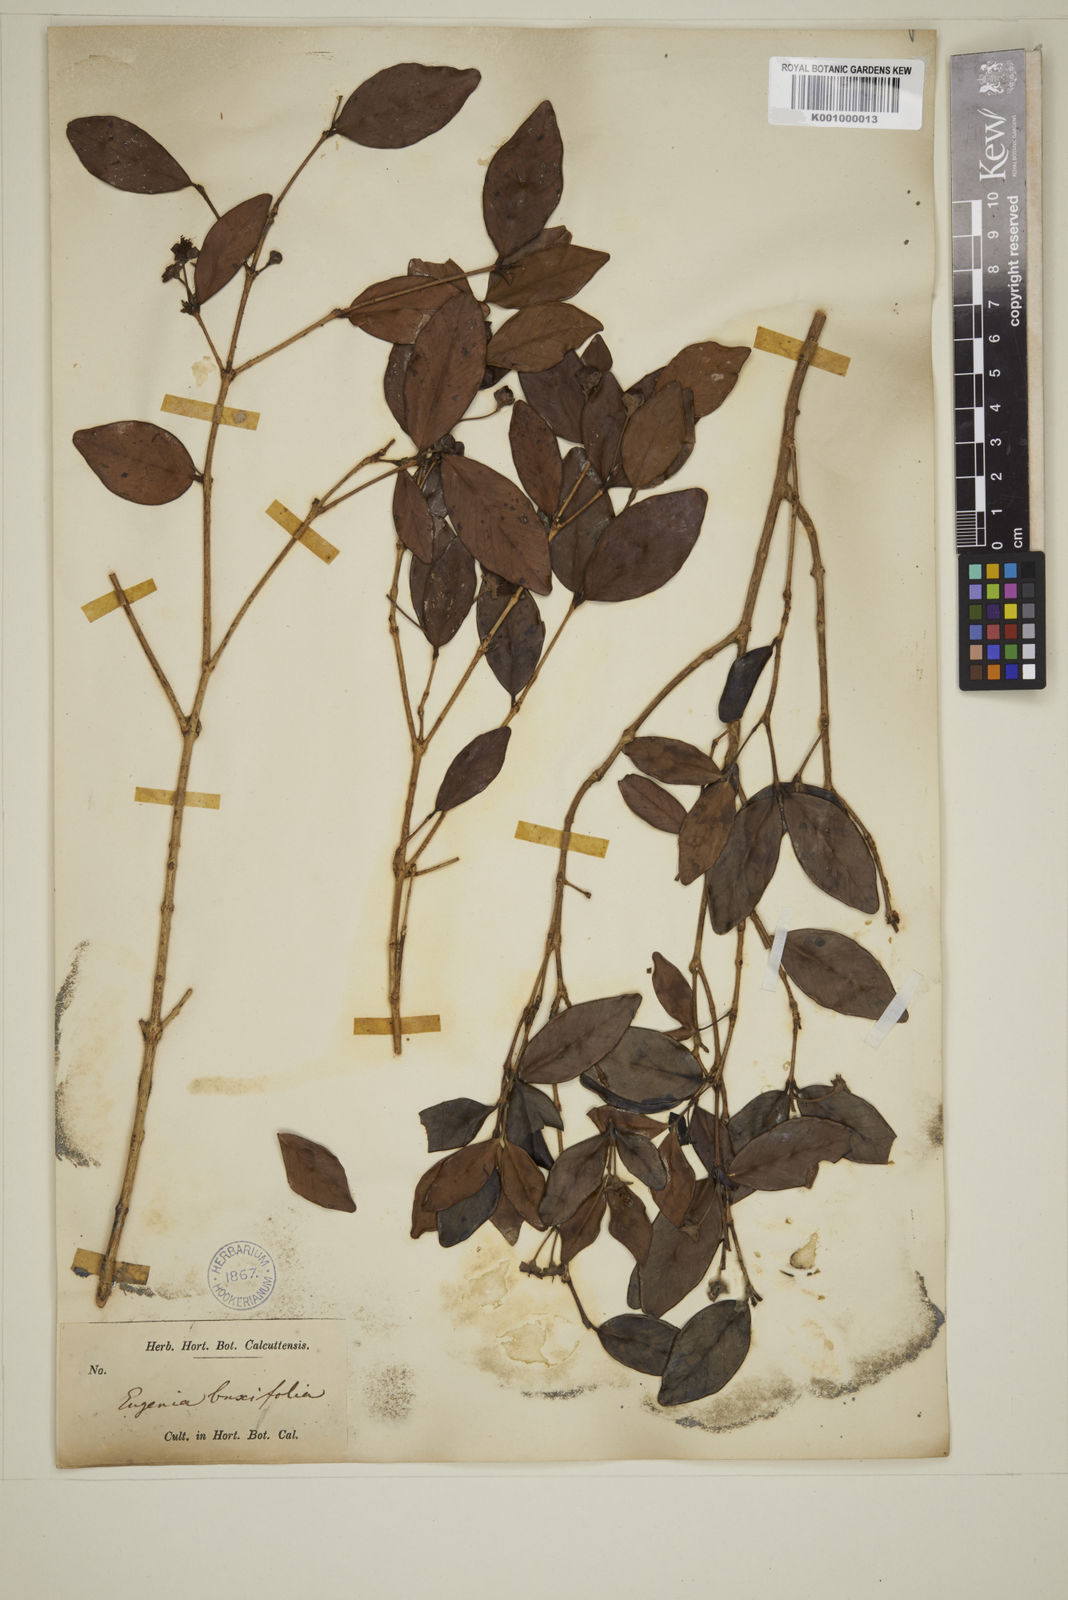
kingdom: Plantae
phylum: Tracheophyta
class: Magnoliopsida
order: Myrtales
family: Myrtaceae
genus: Eugenia
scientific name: Eugenia buxifolia
